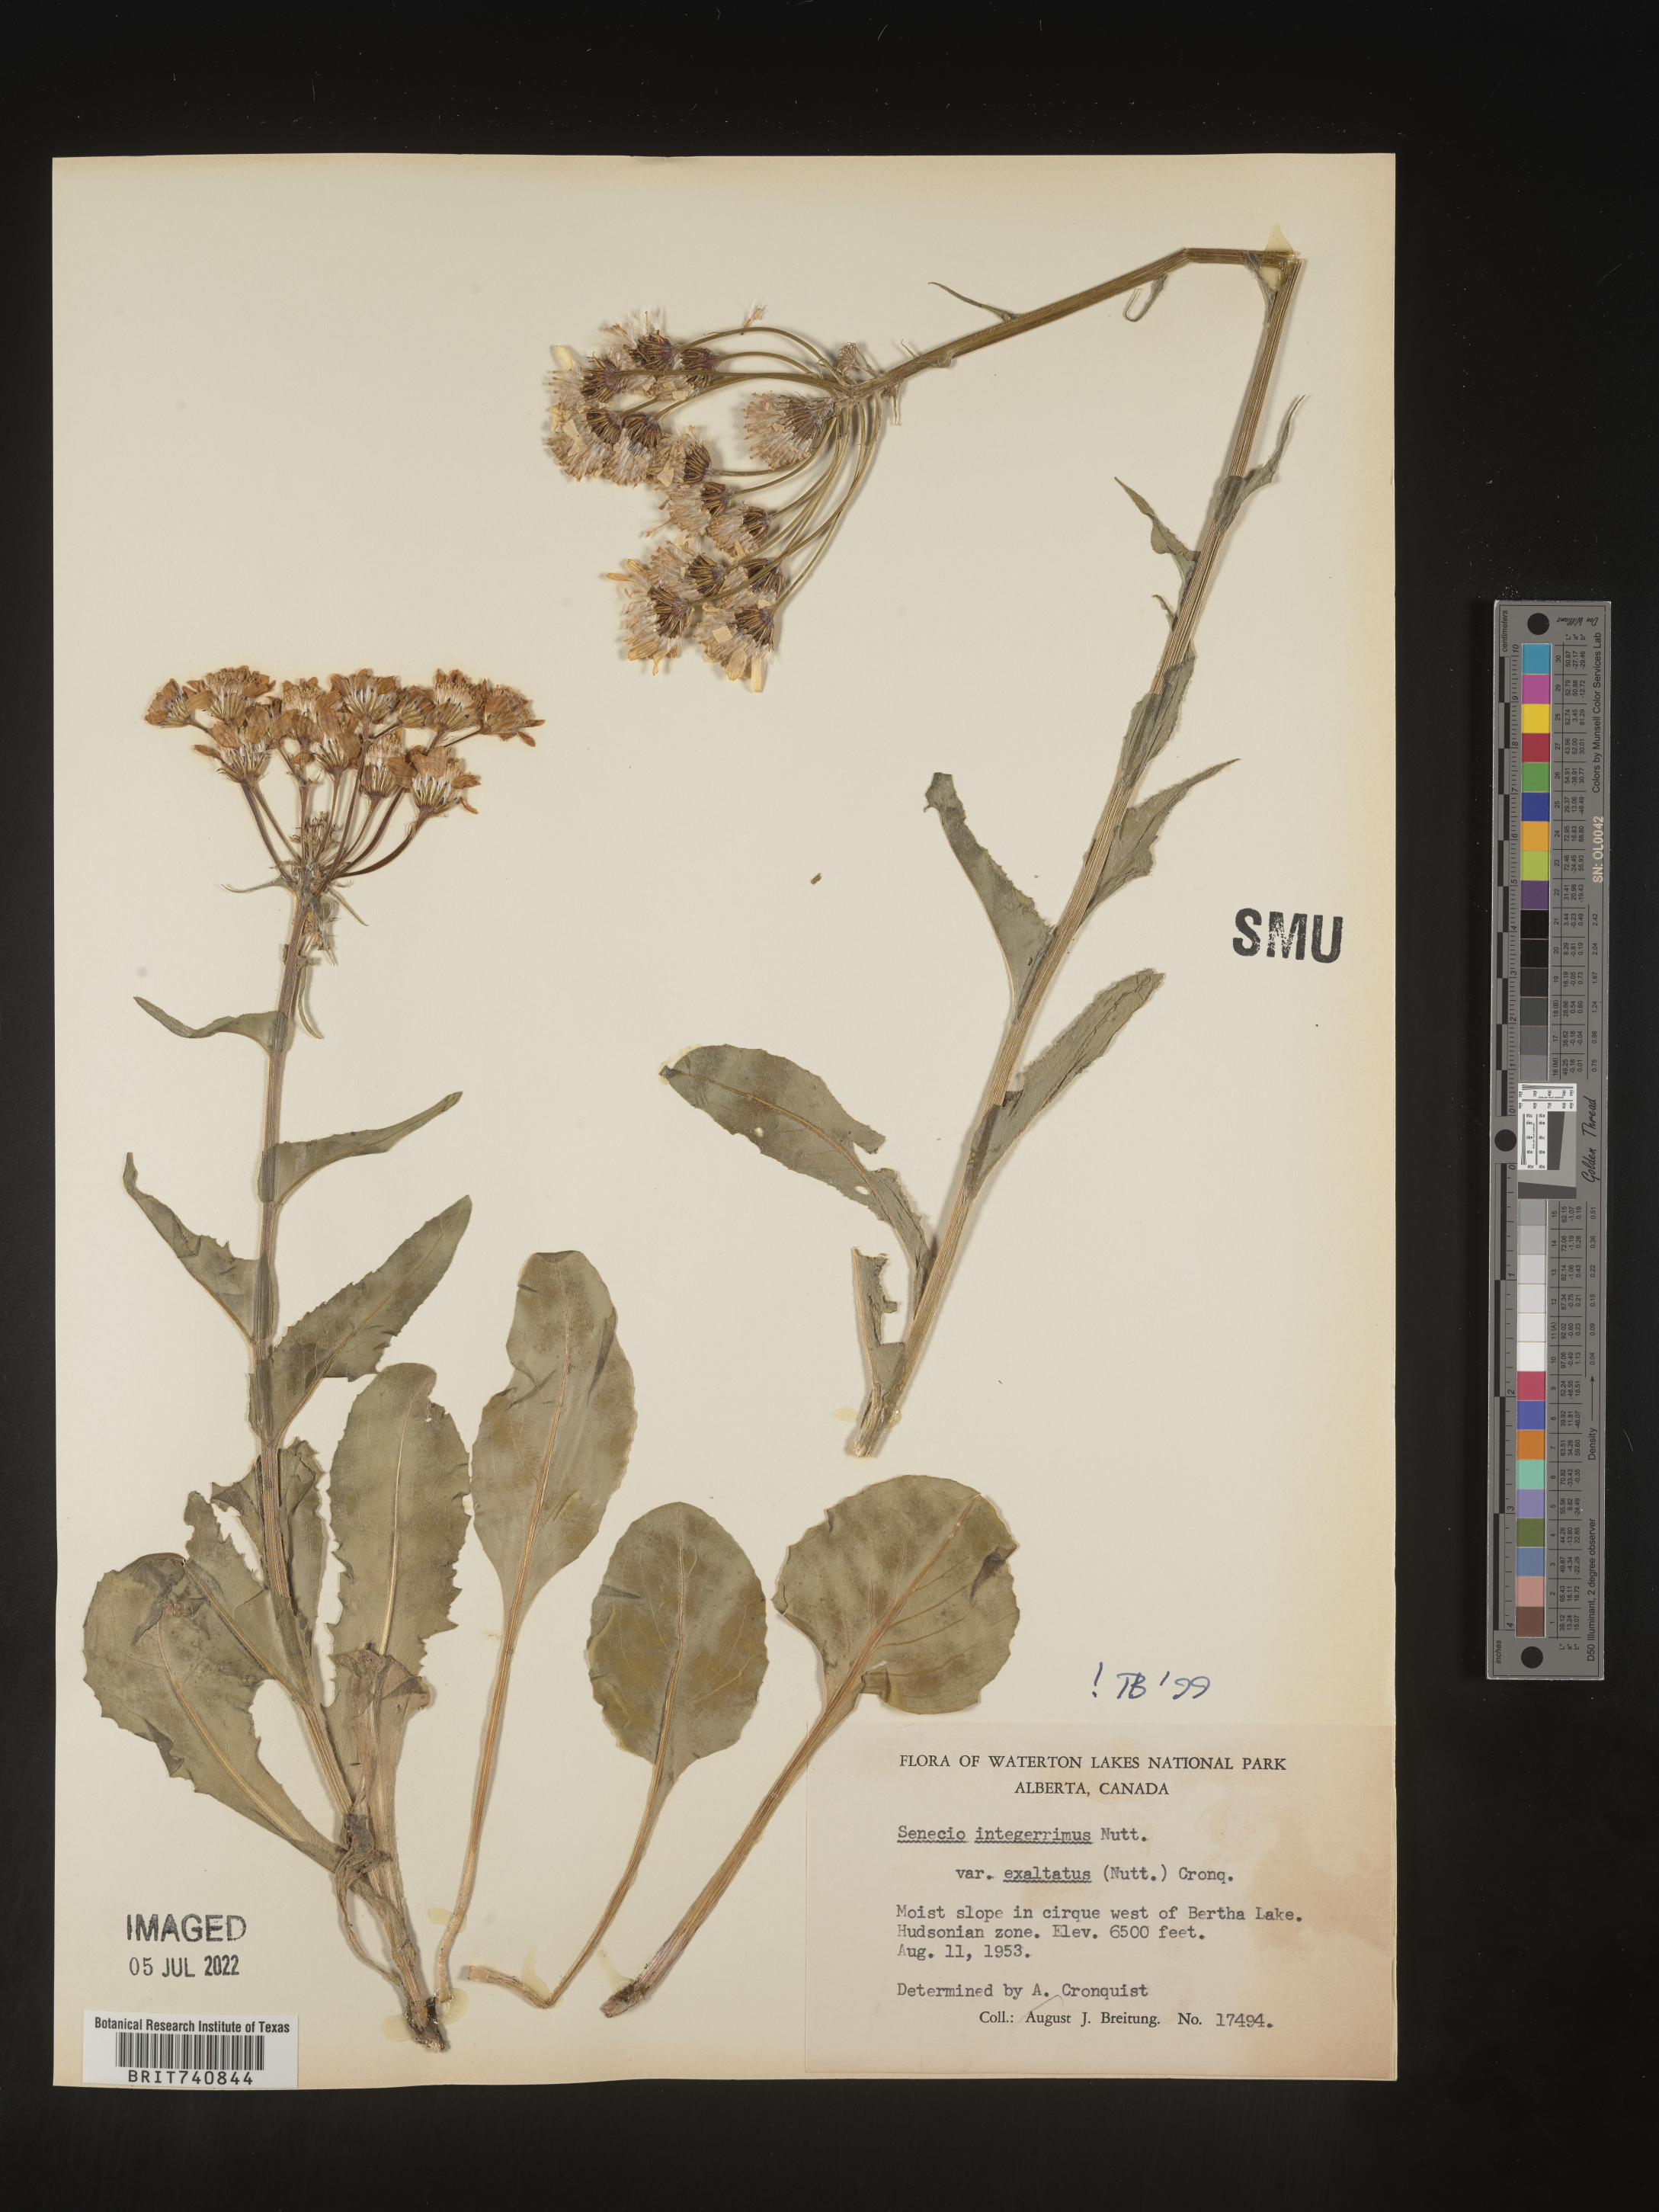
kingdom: Plantae
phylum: Tracheophyta
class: Magnoliopsida
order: Asterales
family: Asteraceae
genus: Senecio
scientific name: Senecio integerrimus
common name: Gaugeplant
